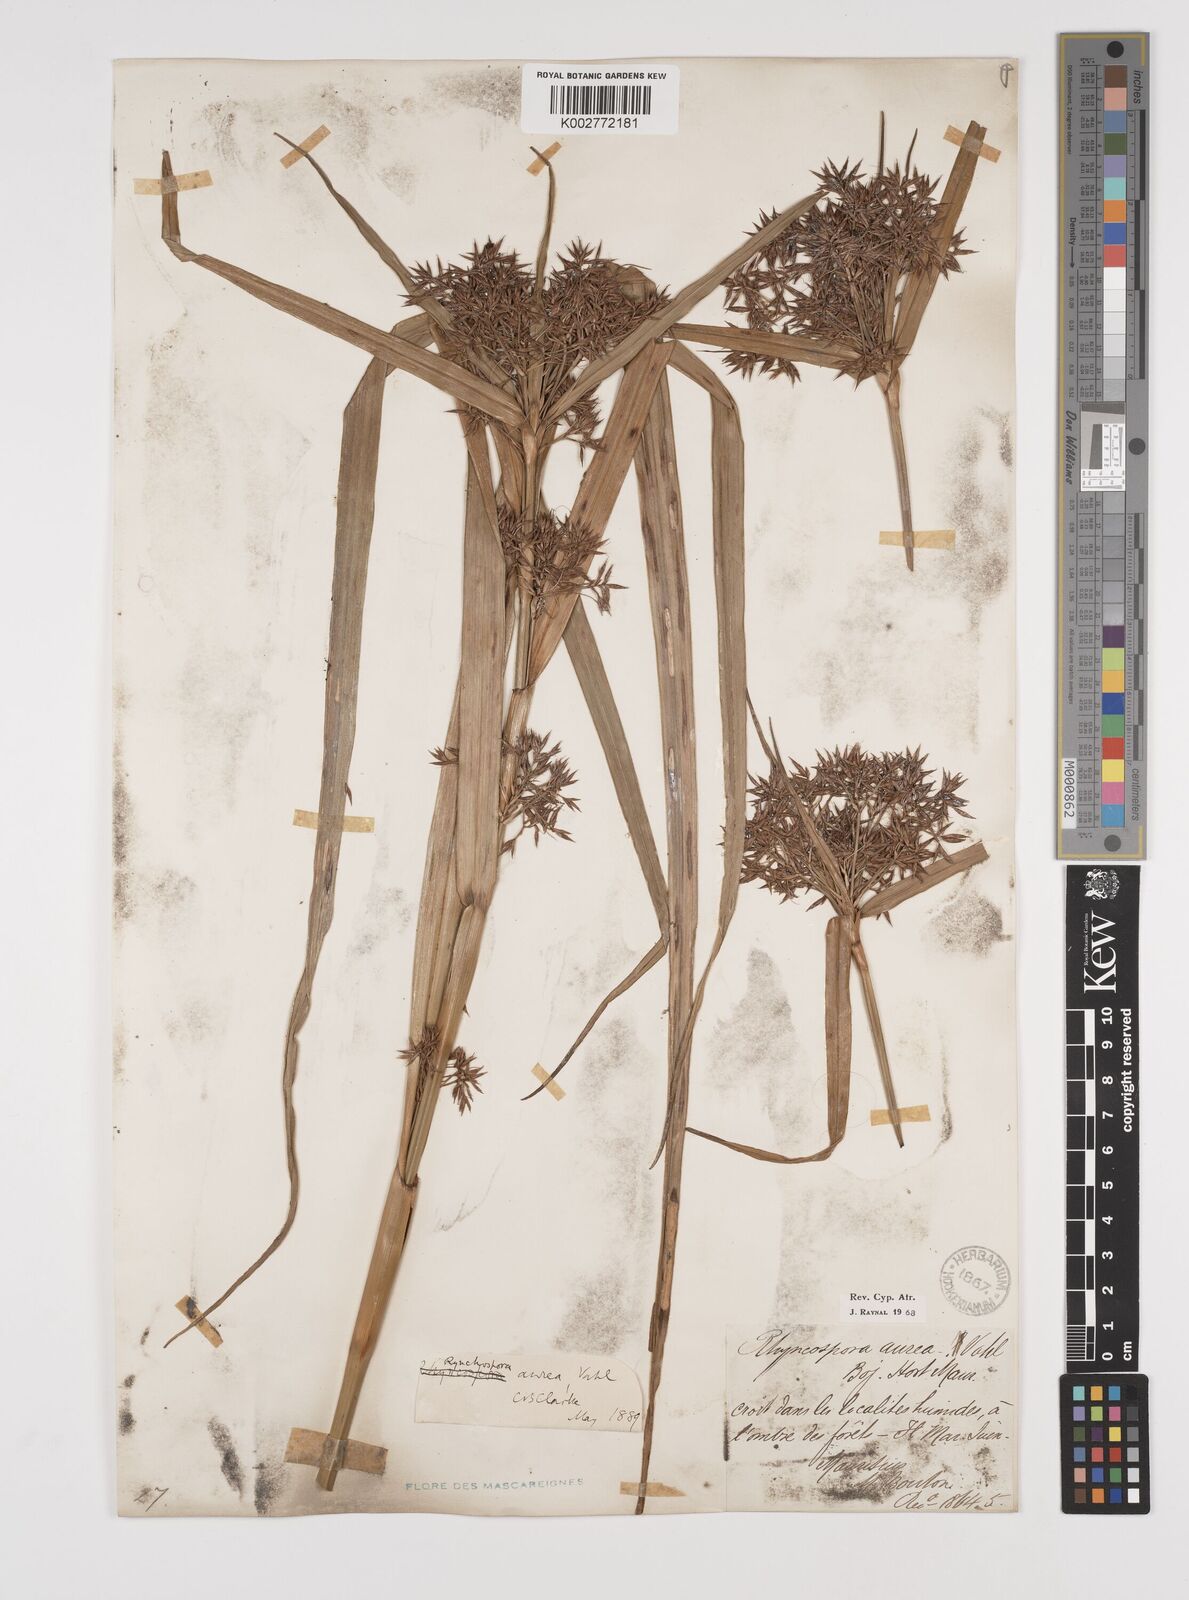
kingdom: Plantae
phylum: Tracheophyta
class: Liliopsida
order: Poales
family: Cyperaceae
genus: Rhynchospora
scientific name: Rhynchospora corymbosa
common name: Golden beak sedge
